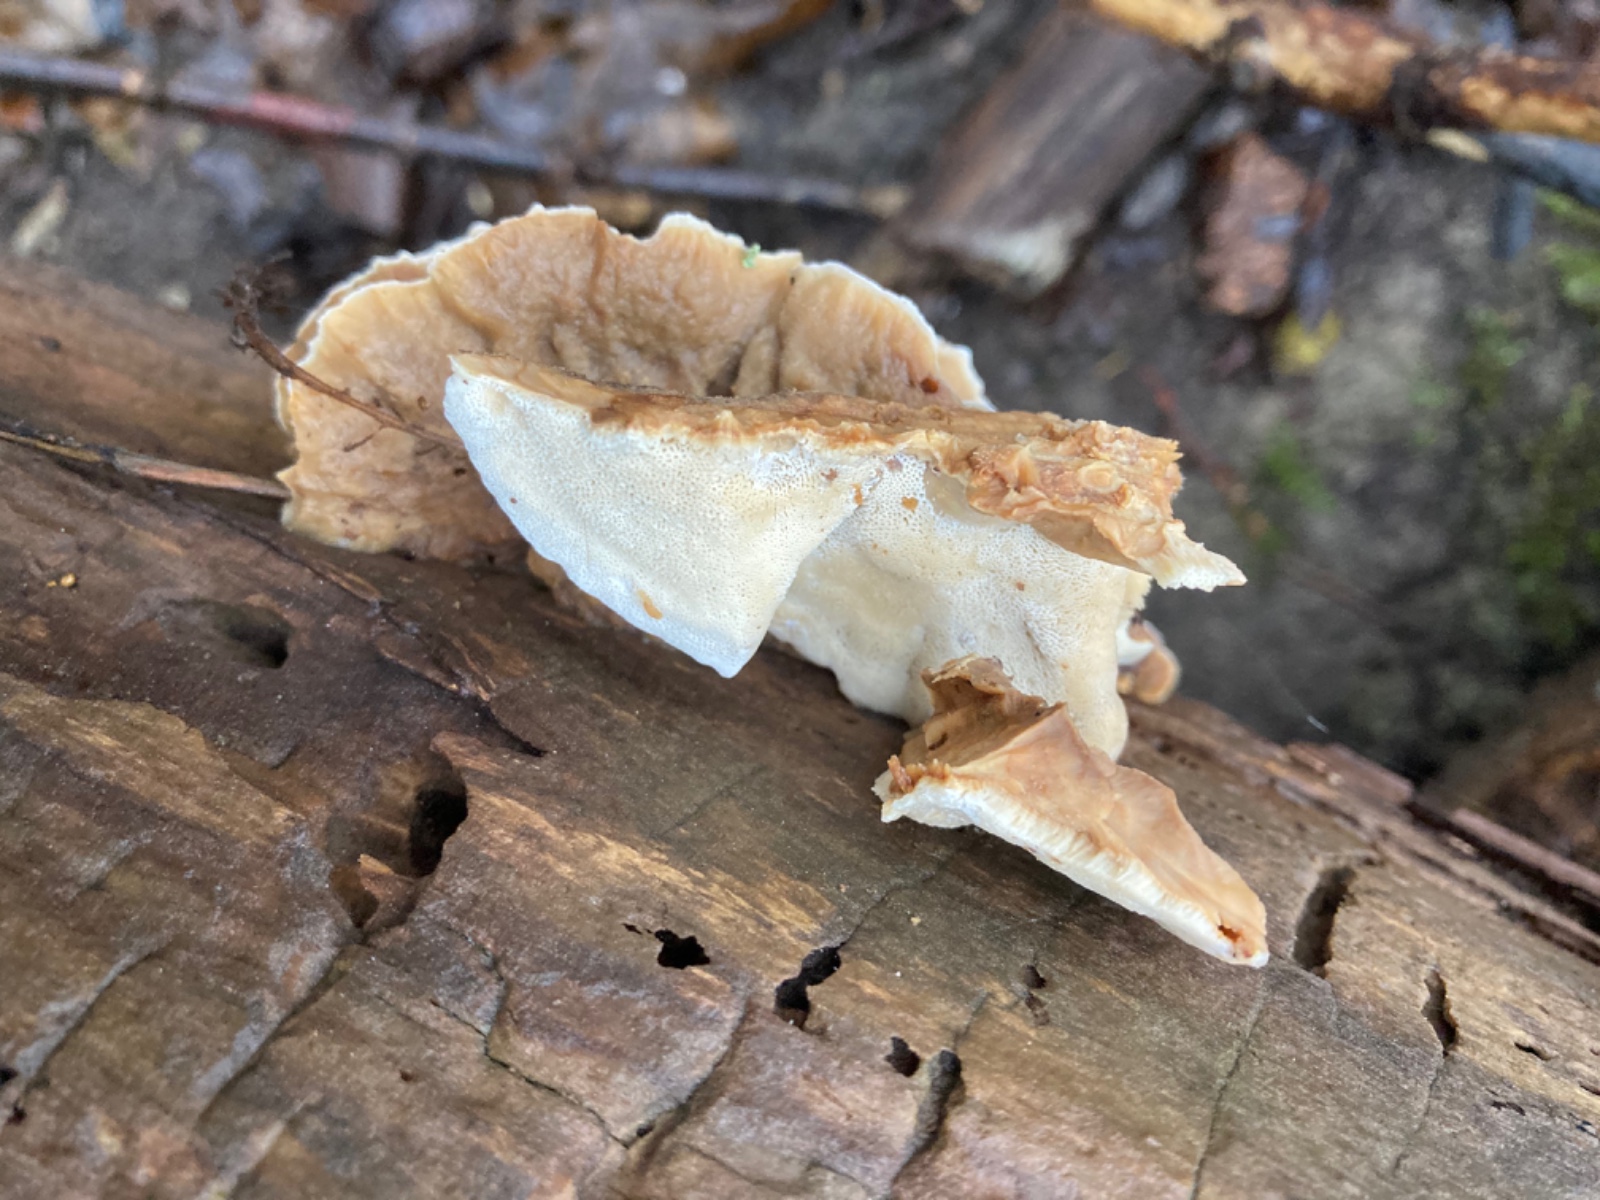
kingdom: Fungi
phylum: Basidiomycota
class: Agaricomycetes
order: Polyporales
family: Phanerochaetaceae
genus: Bjerkandera
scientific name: Bjerkandera fumosa
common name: grågul sodporesvamp
